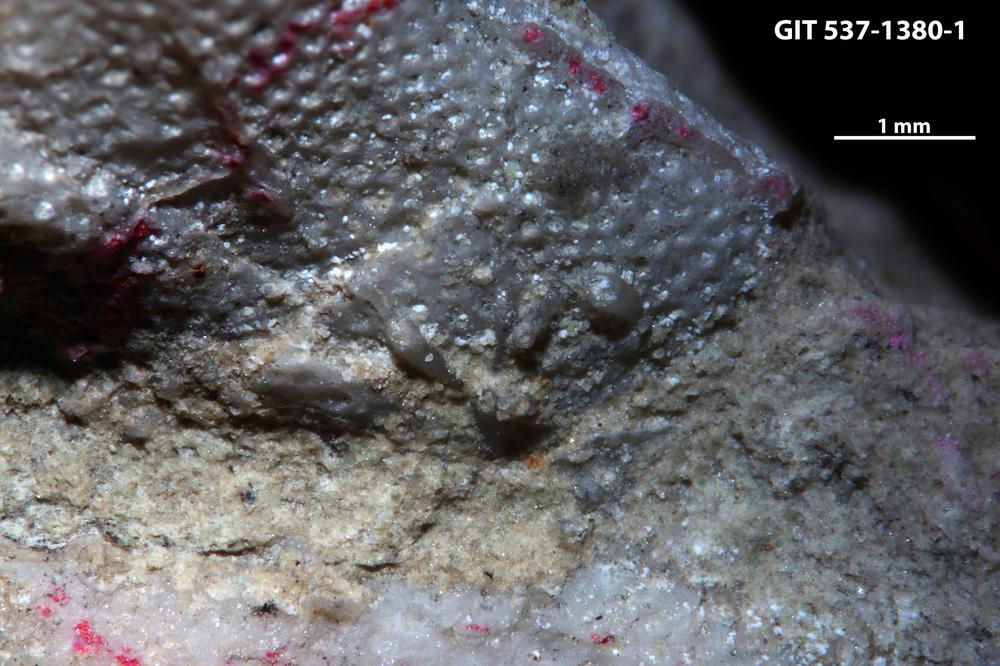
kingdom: Animalia
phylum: Bryozoa
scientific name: Bryozoa
